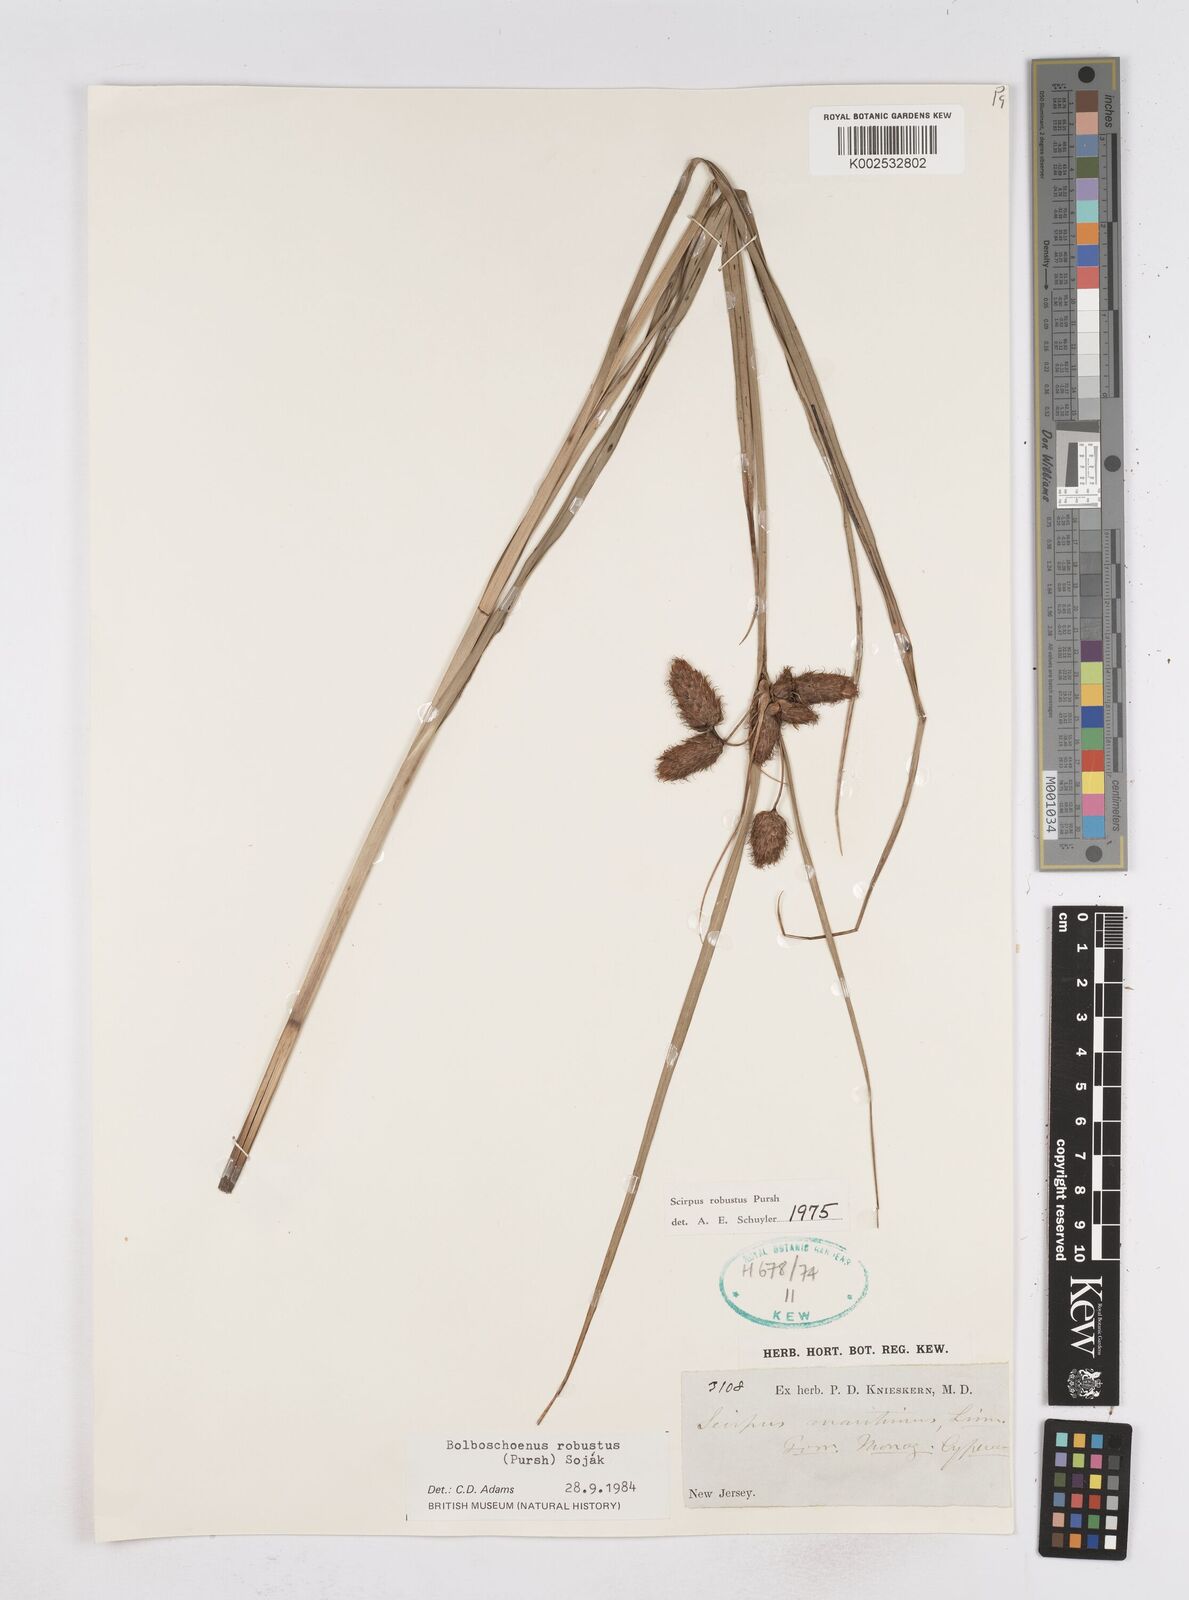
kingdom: Plantae
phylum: Tracheophyta
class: Liliopsida
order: Poales
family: Cyperaceae
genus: Bolboschoenus
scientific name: Bolboschoenus robustus
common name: Seacoast bulrush
